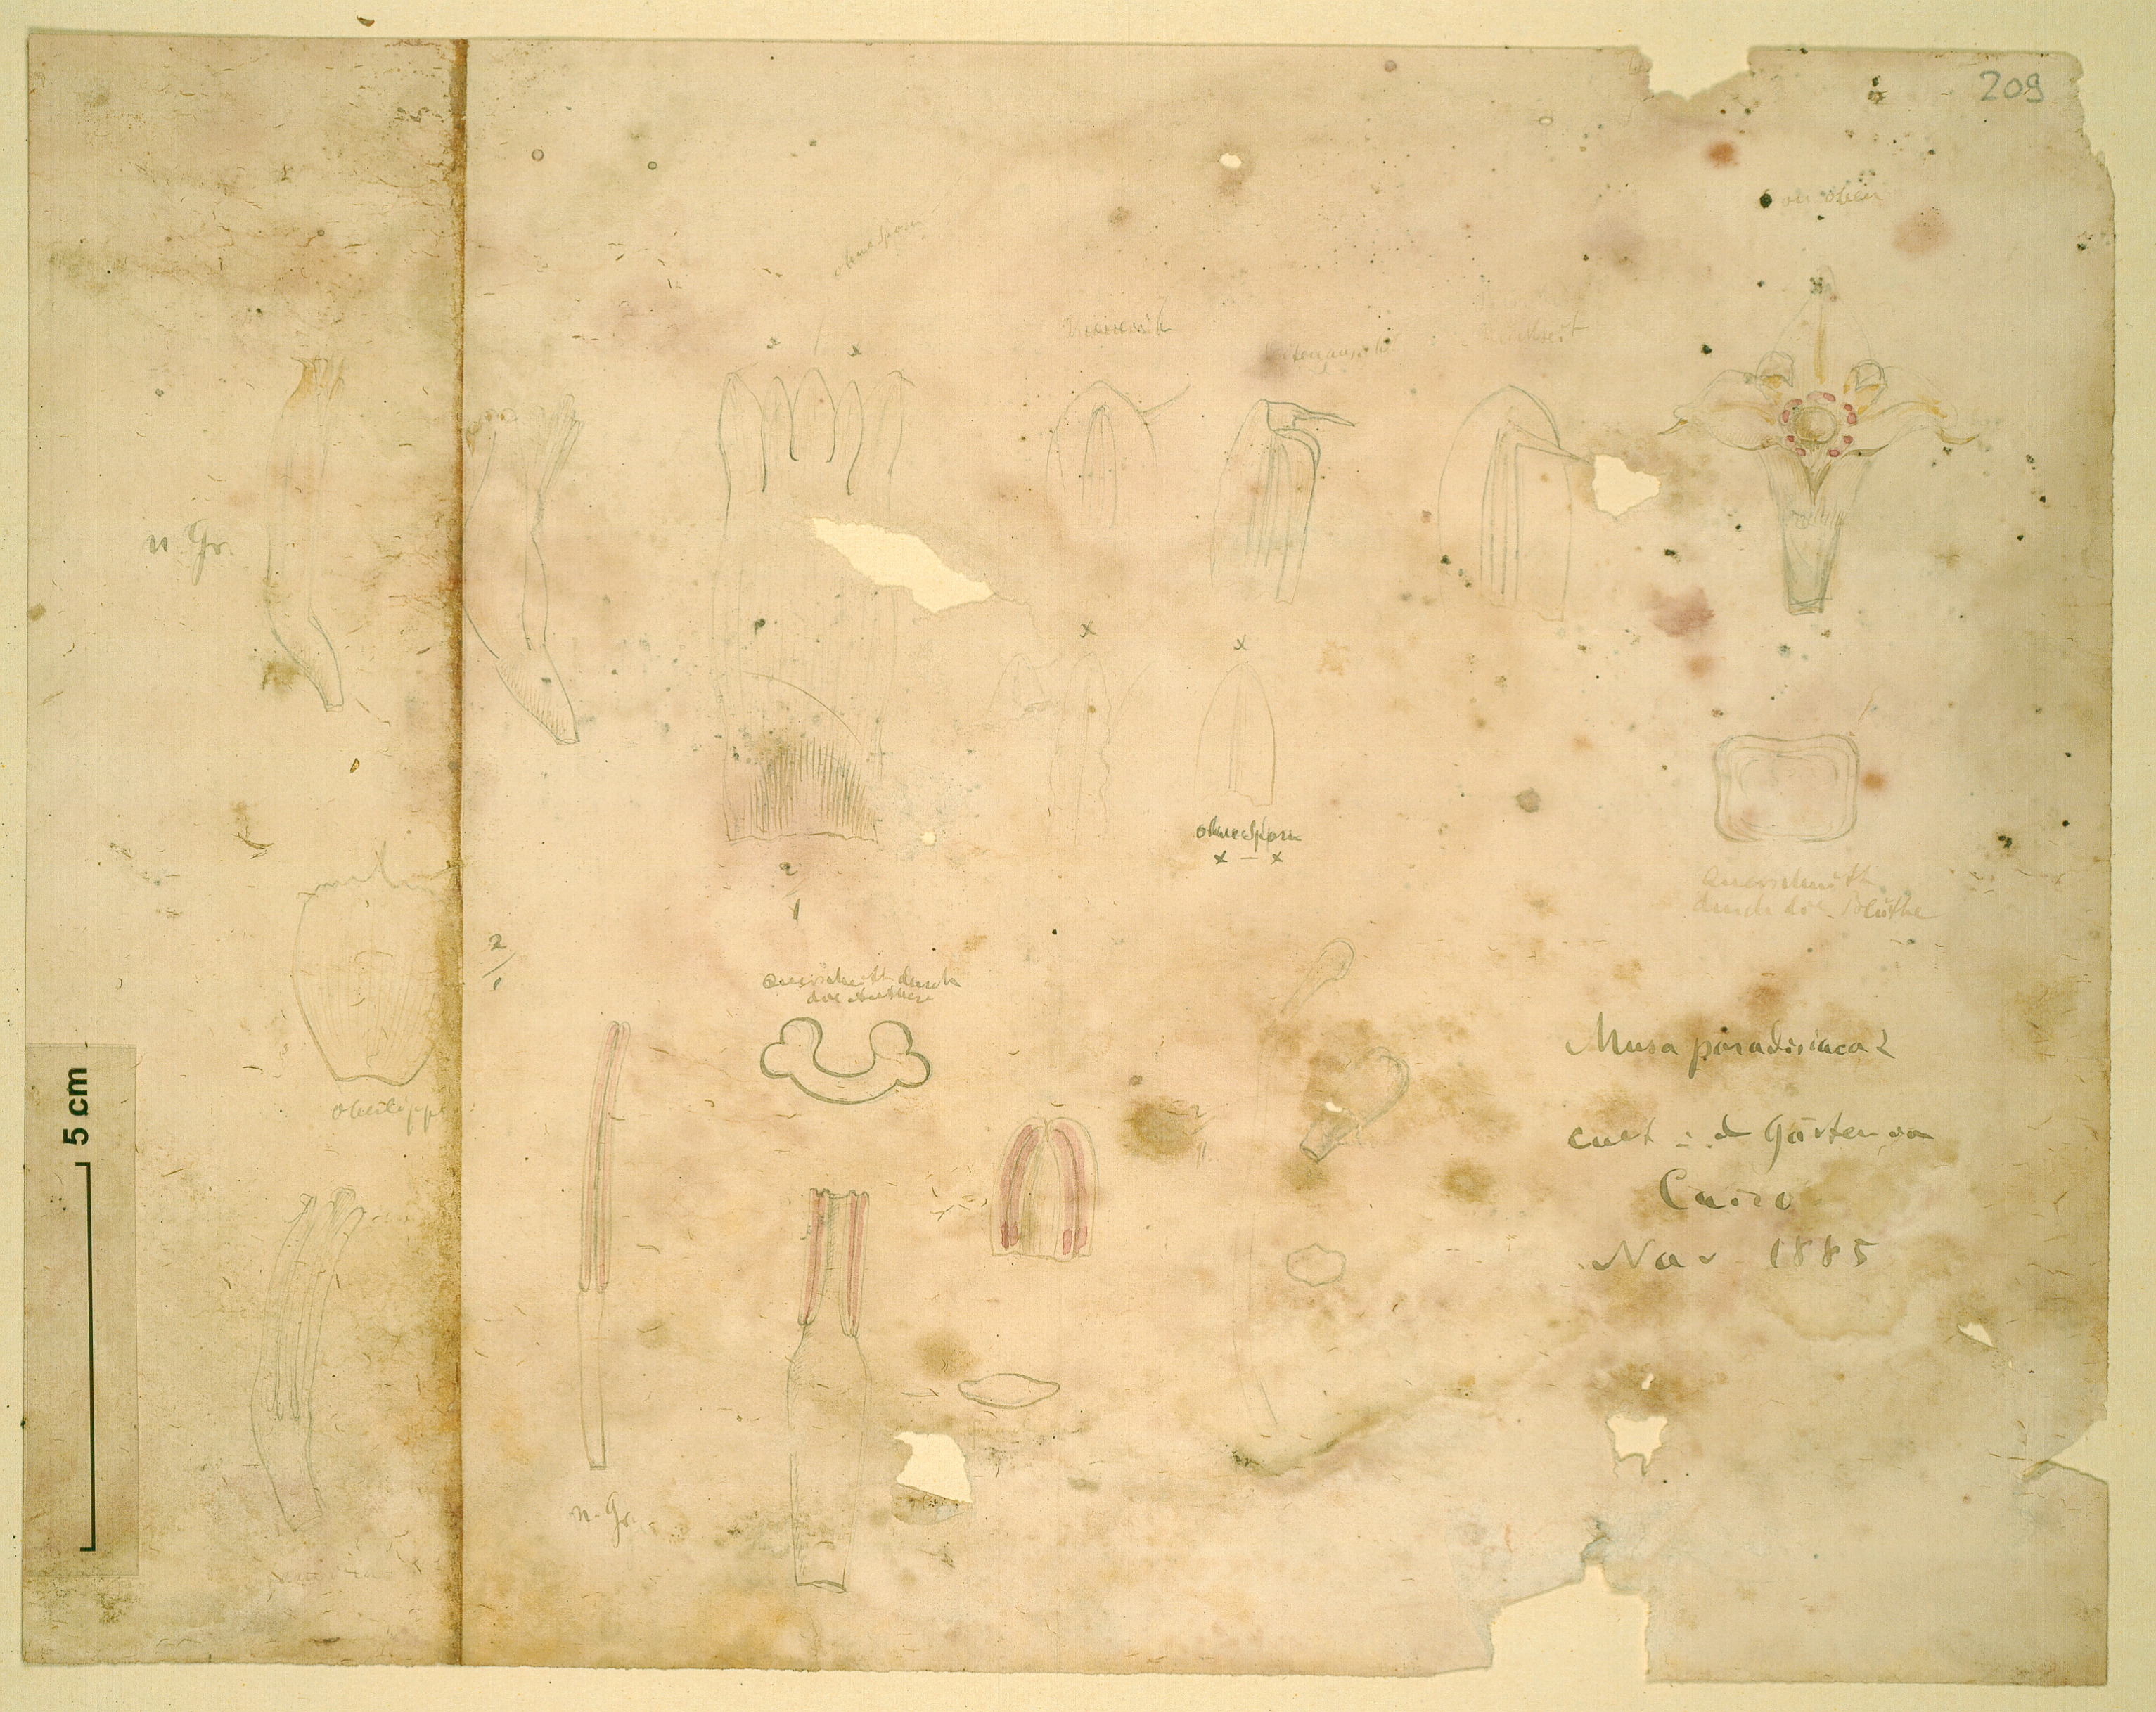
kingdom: Plantae
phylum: Tracheophyta
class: Liliopsida
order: Zingiberales
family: Musaceae
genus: Musa
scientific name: Musa paradisiaca
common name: French plantain
